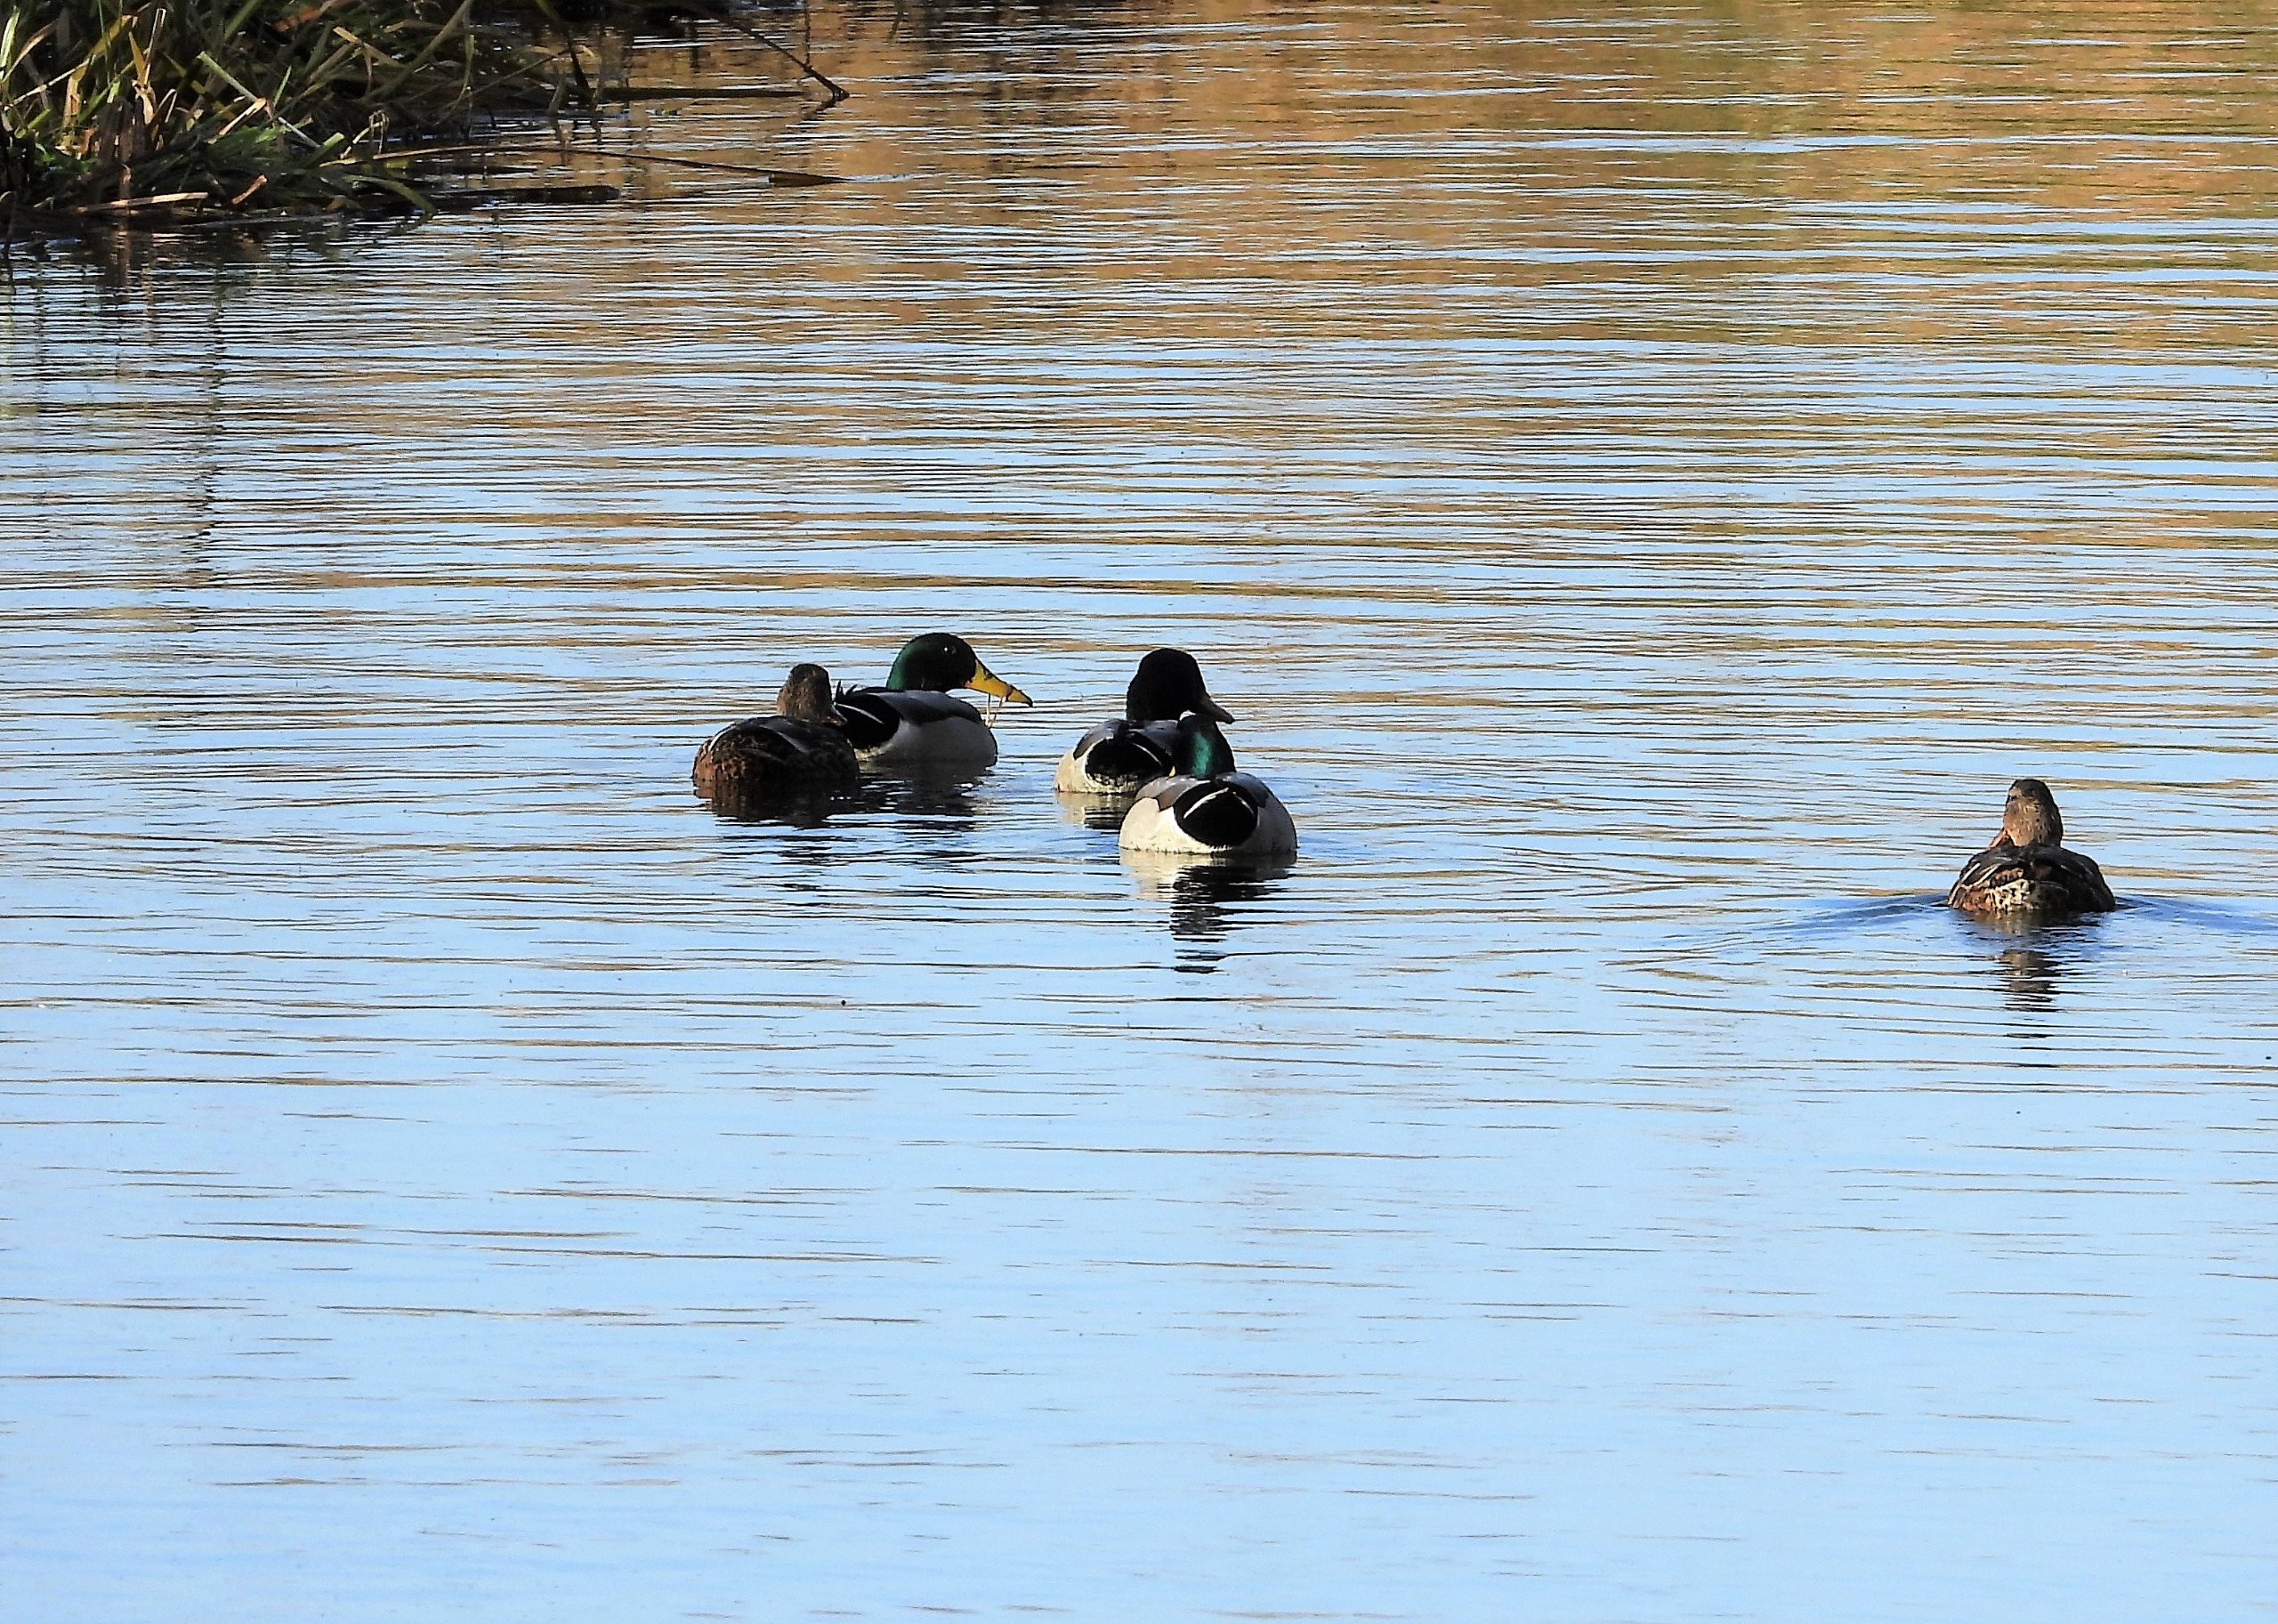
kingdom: Animalia
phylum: Chordata
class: Aves
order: Anseriformes
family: Anatidae
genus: Anas
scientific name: Anas platyrhynchos
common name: Gråand
